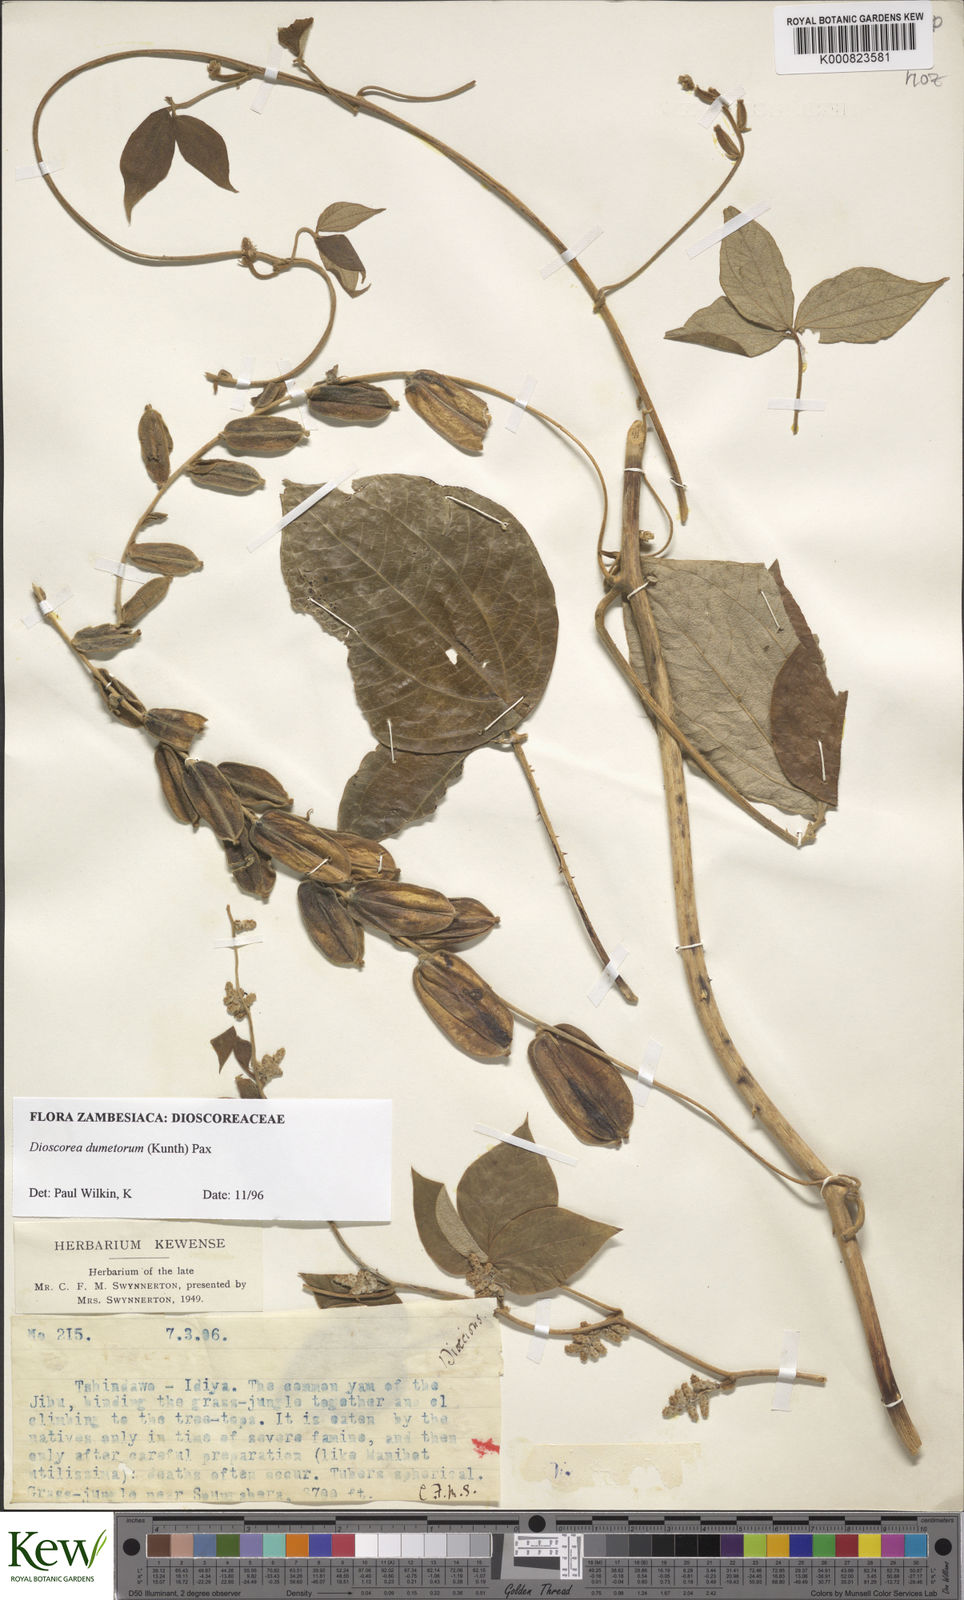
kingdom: Plantae
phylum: Tracheophyta
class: Liliopsida
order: Dioscoreales
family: Dioscoreaceae
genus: Dioscorea
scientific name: Dioscorea dumetorum
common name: African bitter yam
